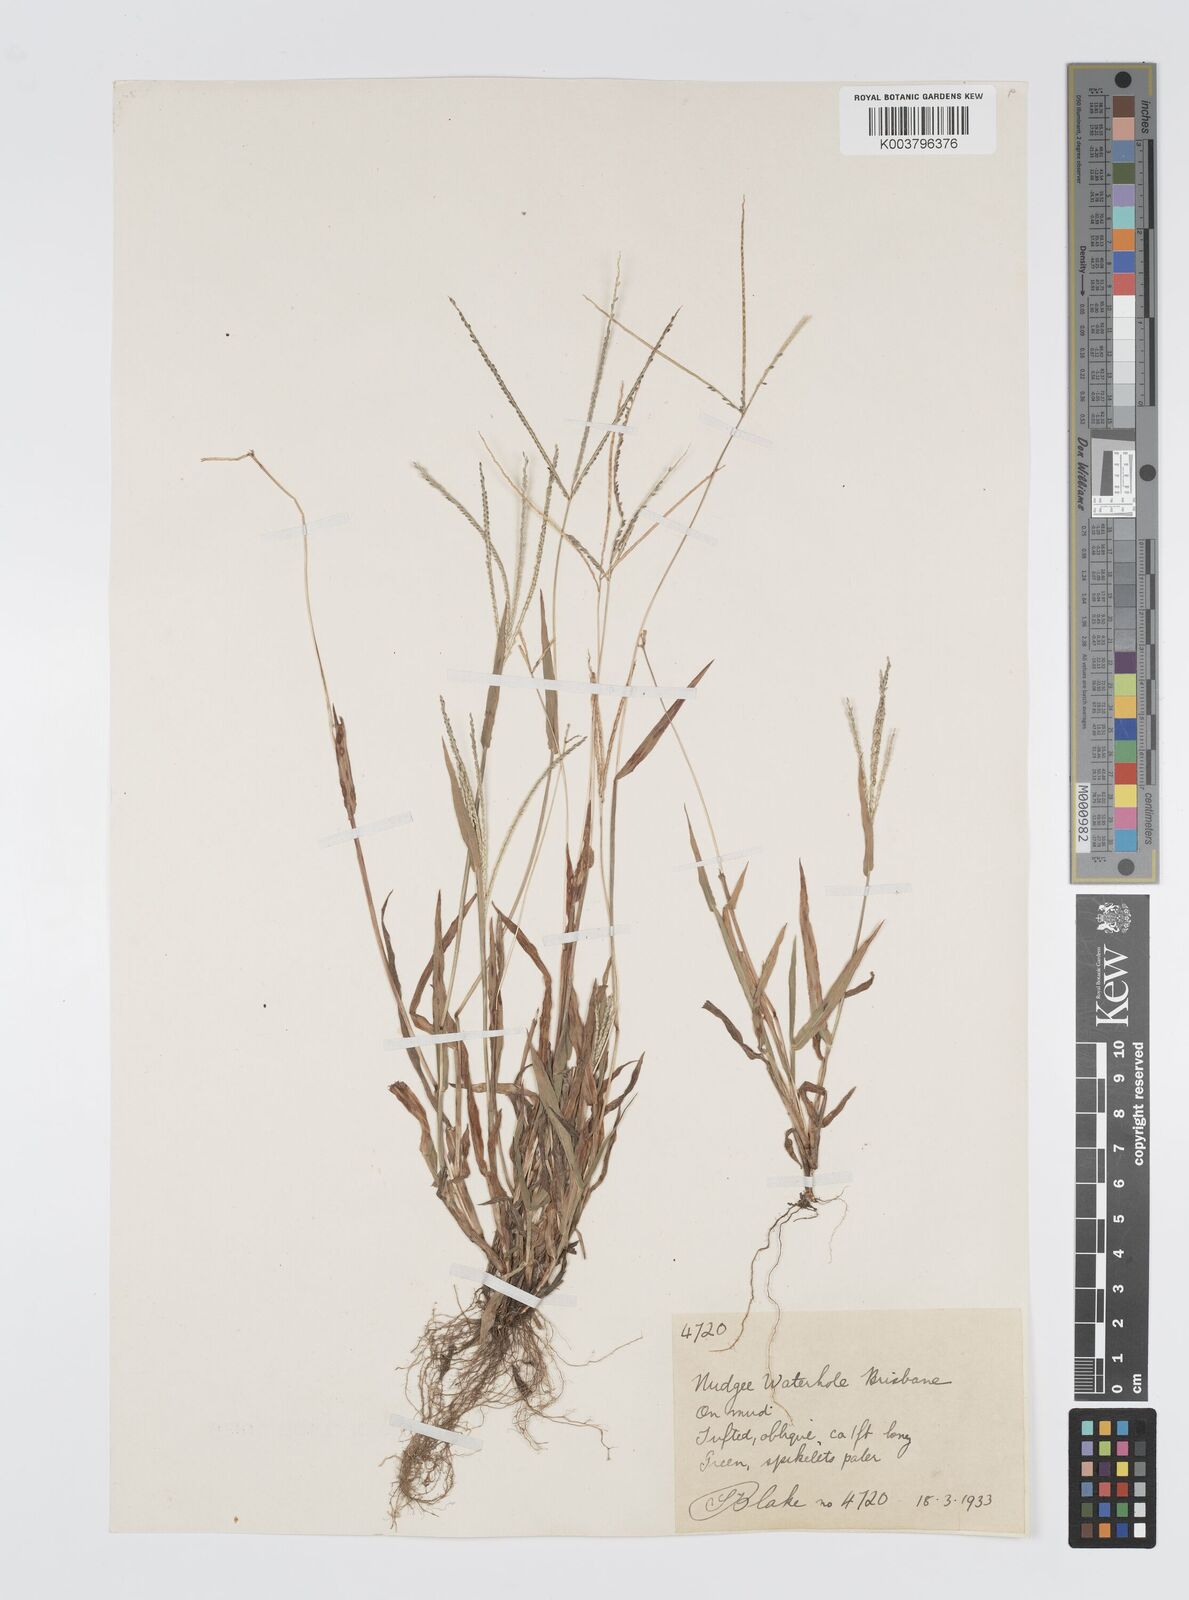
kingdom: Plantae
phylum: Tracheophyta
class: Liliopsida
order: Poales
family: Poaceae
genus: Digitaria
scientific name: Digitaria violascens
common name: Violet crabgrass
